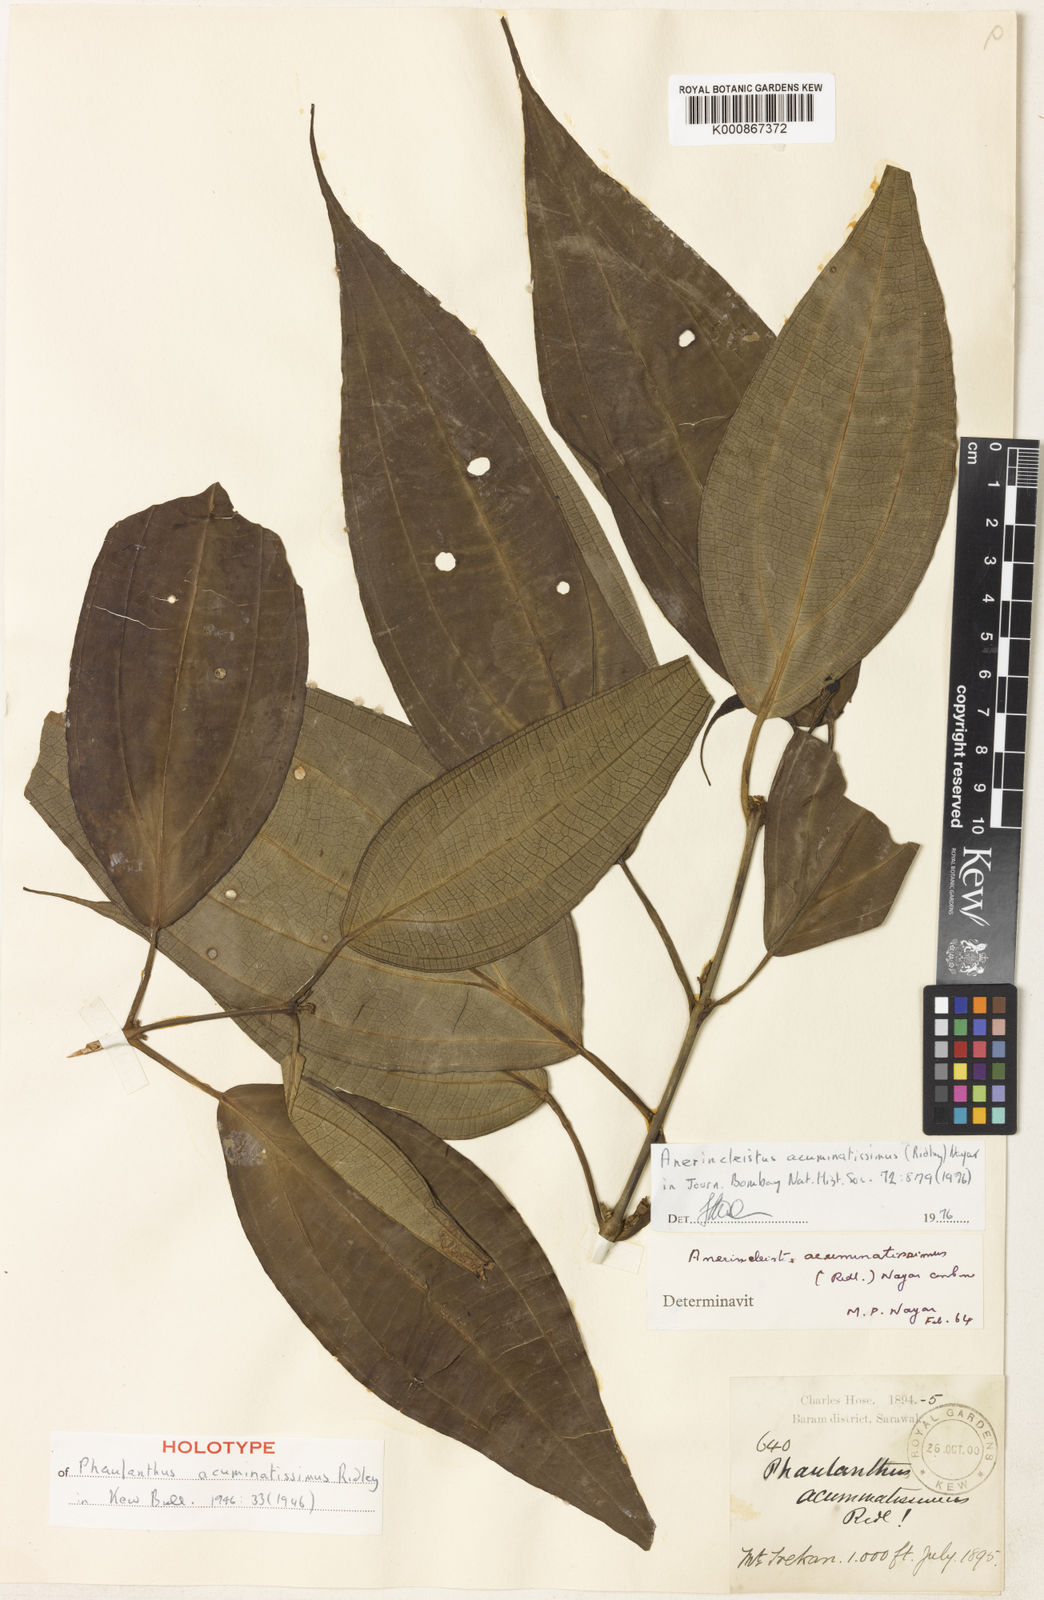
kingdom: Plantae
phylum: Tracheophyta
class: Magnoliopsida
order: Myrtales
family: Melastomataceae
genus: Anerincleistus
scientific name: Anerincleistus acuminatissimus
